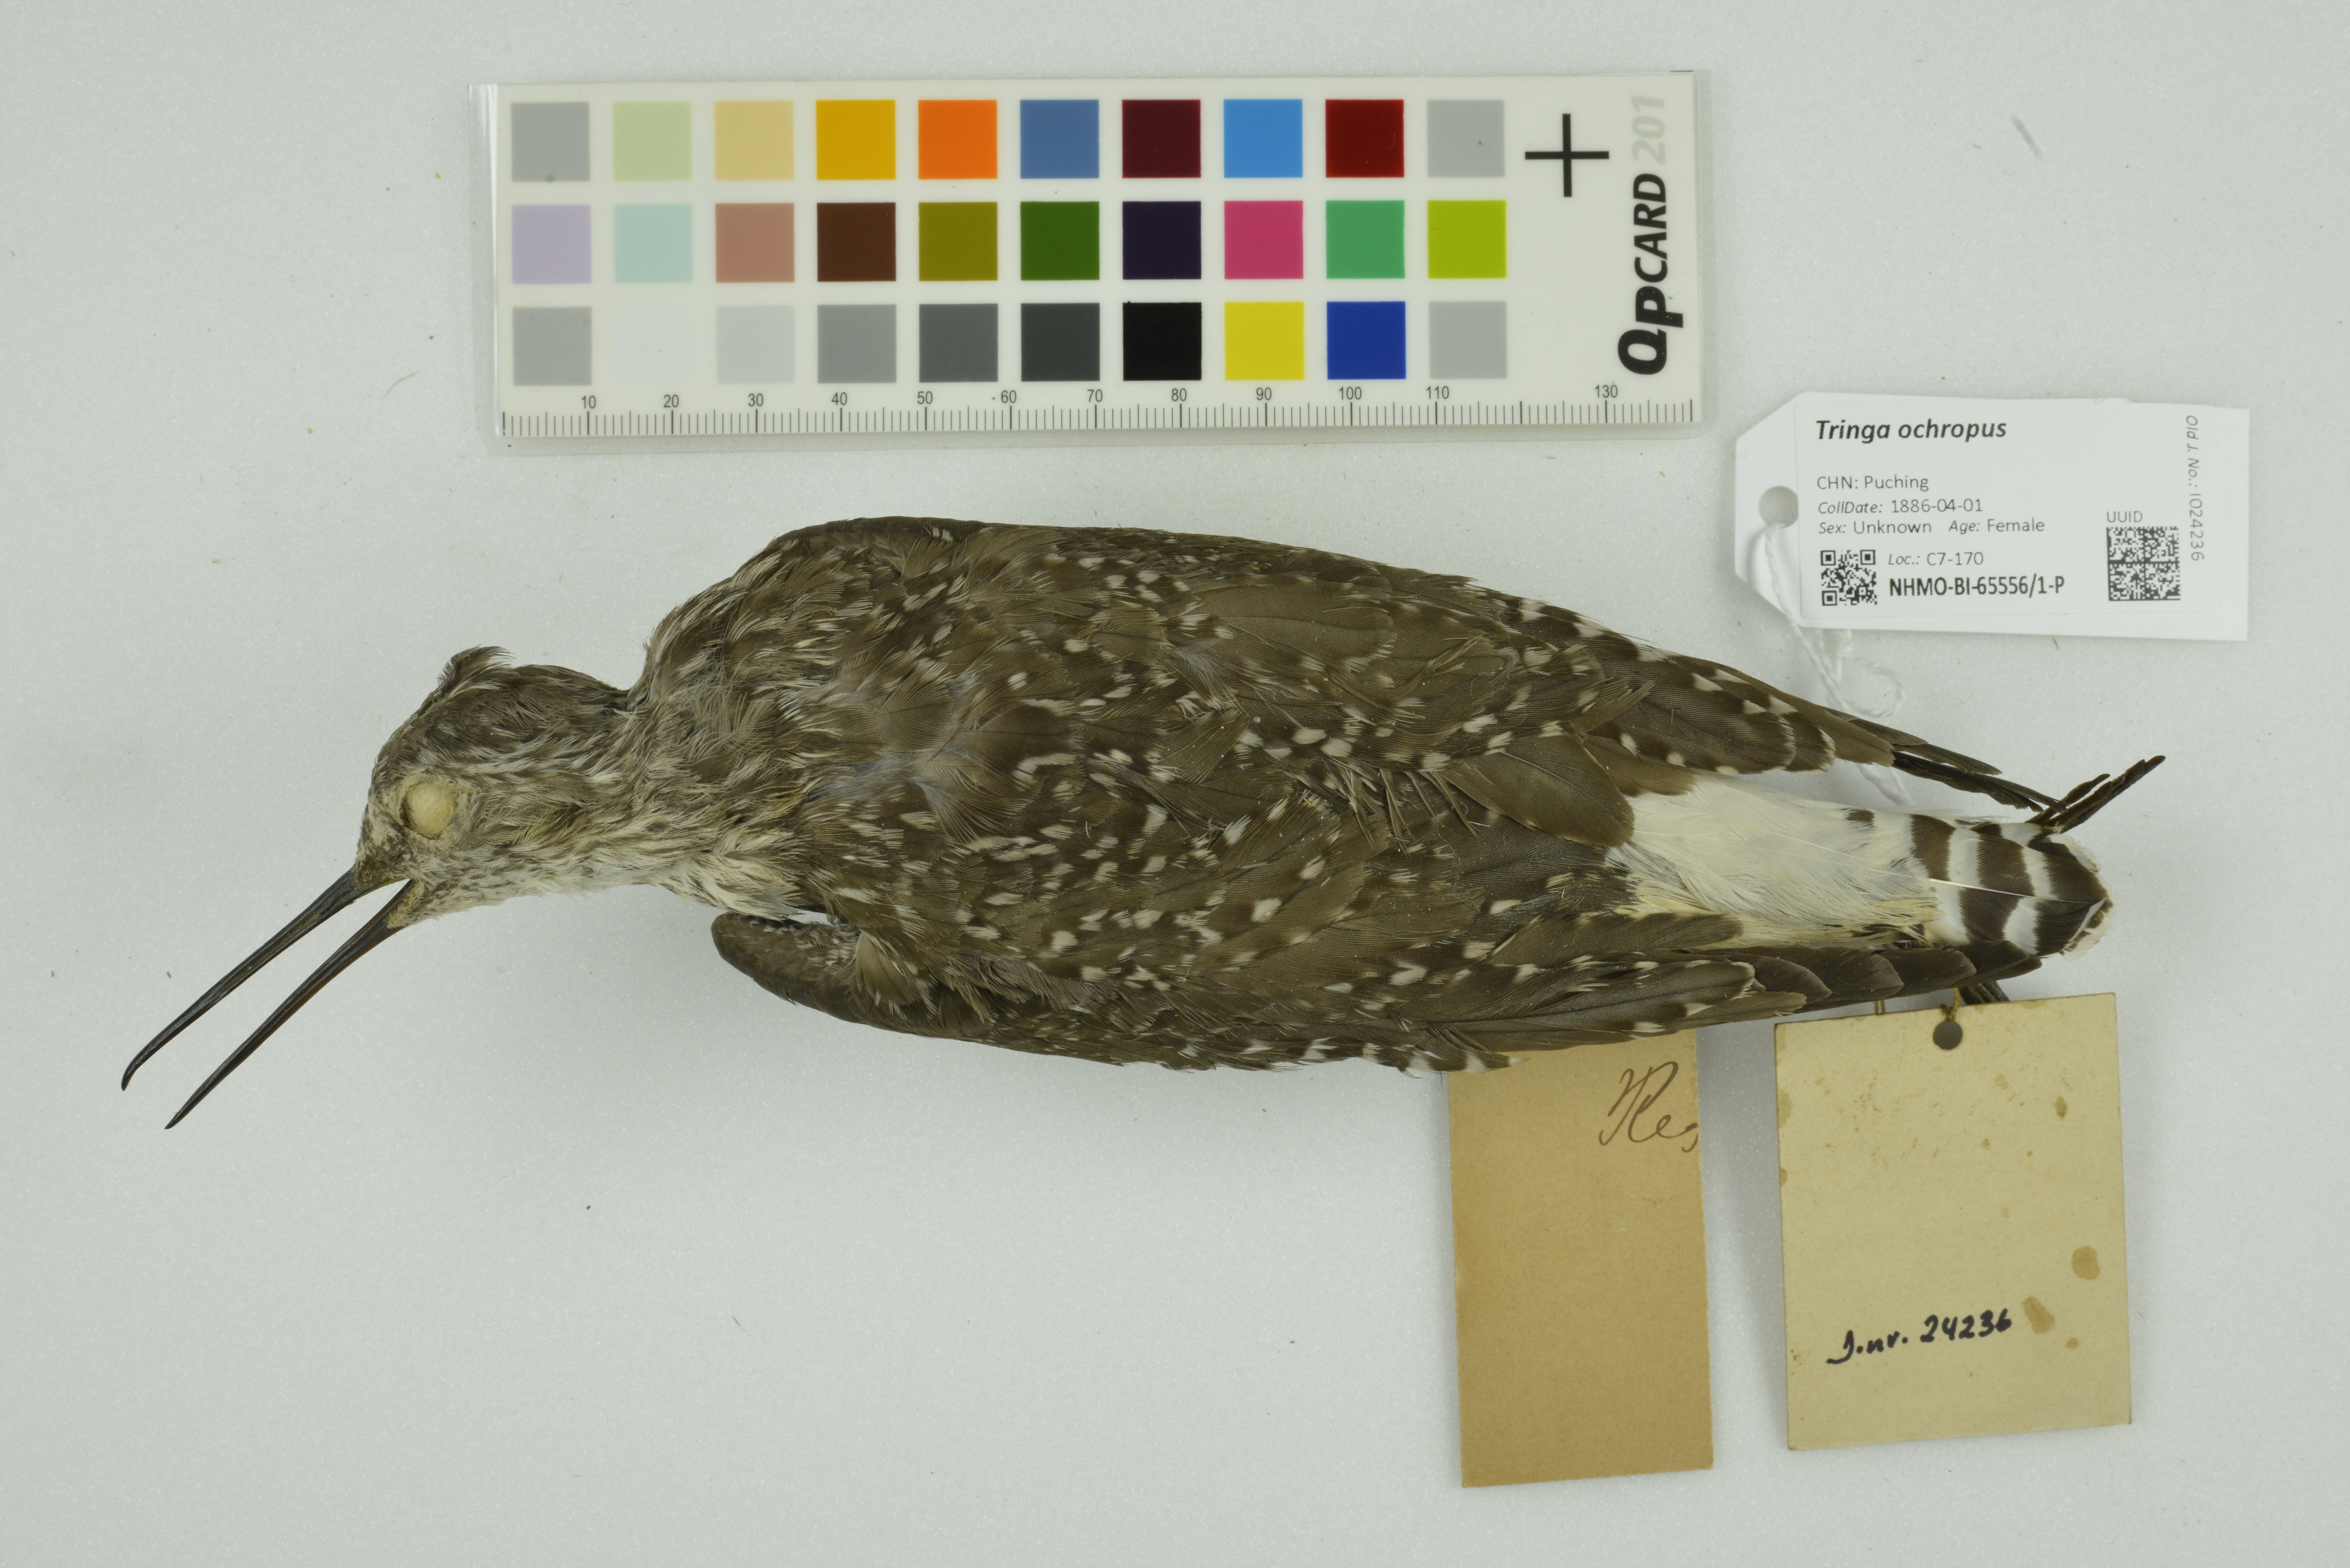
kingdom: Animalia
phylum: Chordata
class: Aves
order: Charadriiformes
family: Scolopacidae
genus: Tringa
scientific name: Tringa ochropus
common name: Green sandpiper
